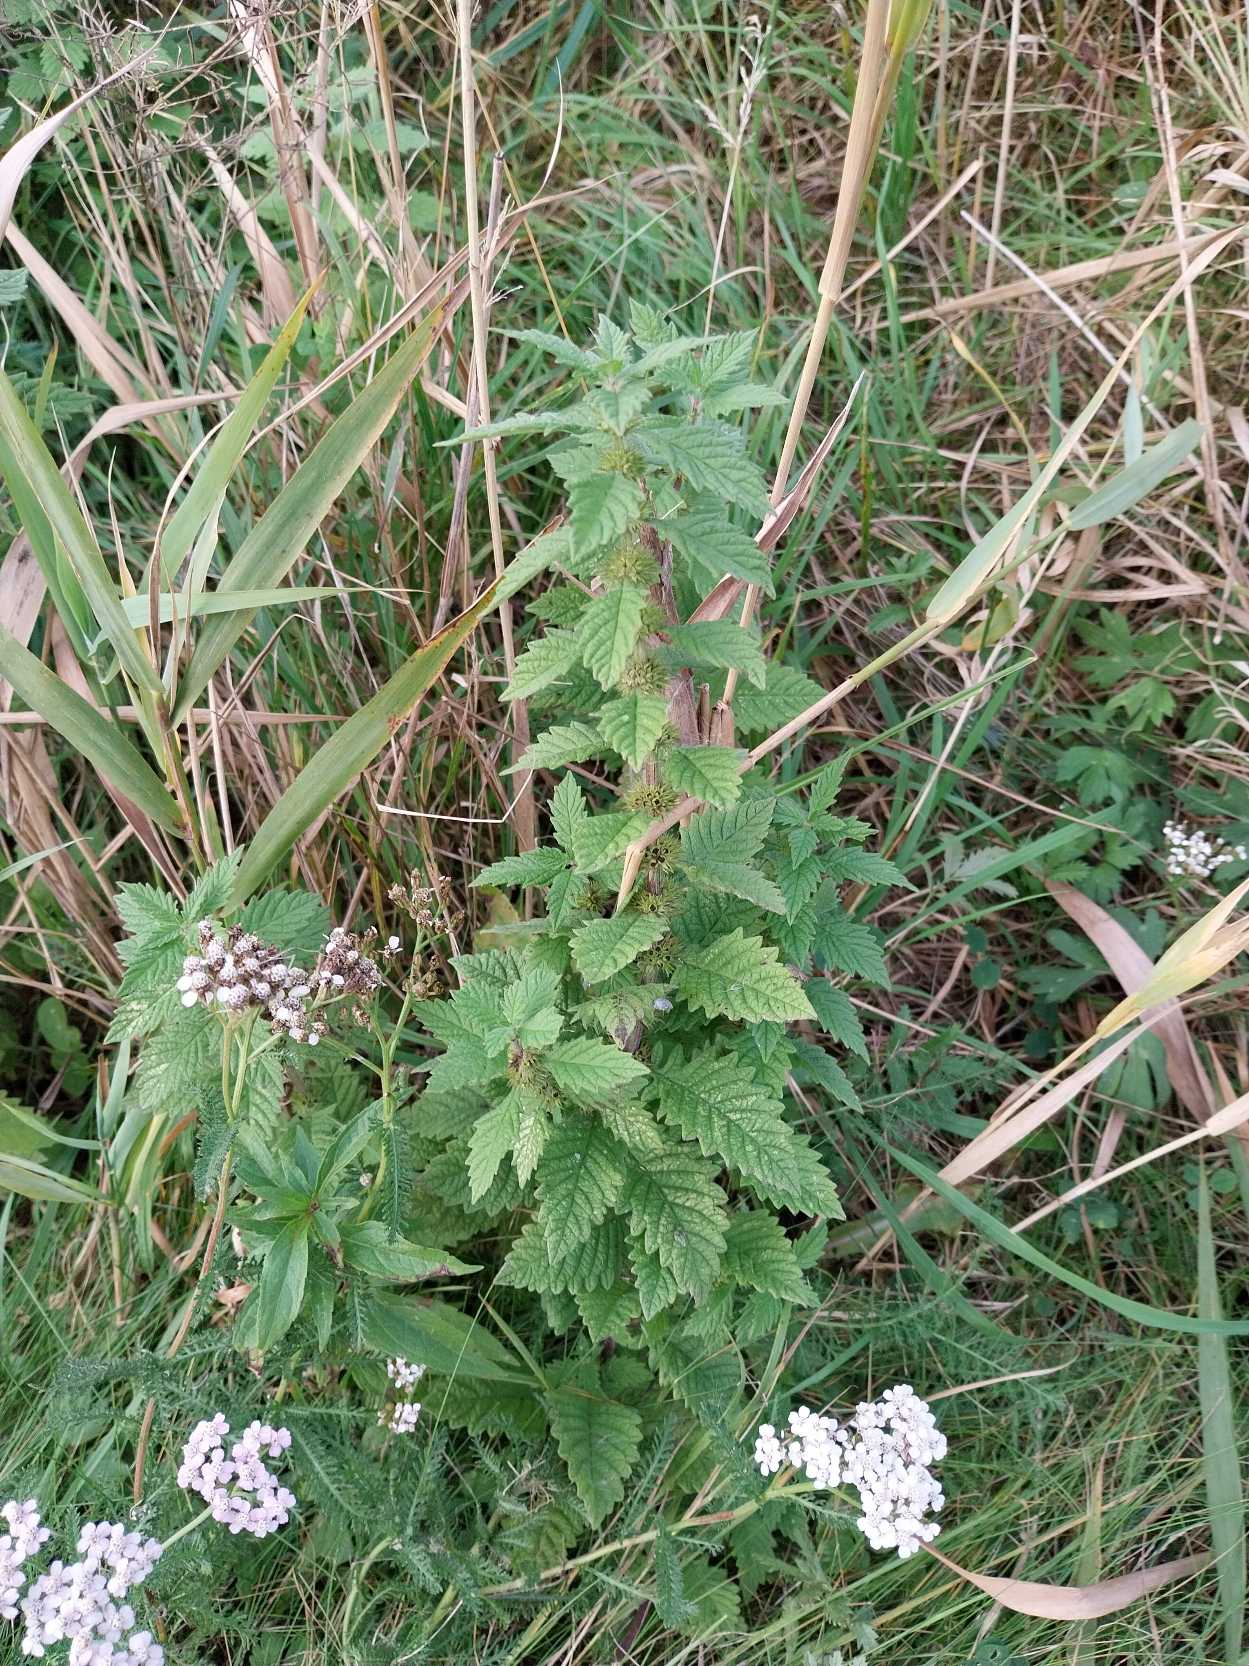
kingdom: Plantae
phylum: Tracheophyta
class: Magnoliopsida
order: Lamiales
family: Lamiaceae
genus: Lycopus
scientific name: Lycopus europaeus
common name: Sværtevæld
